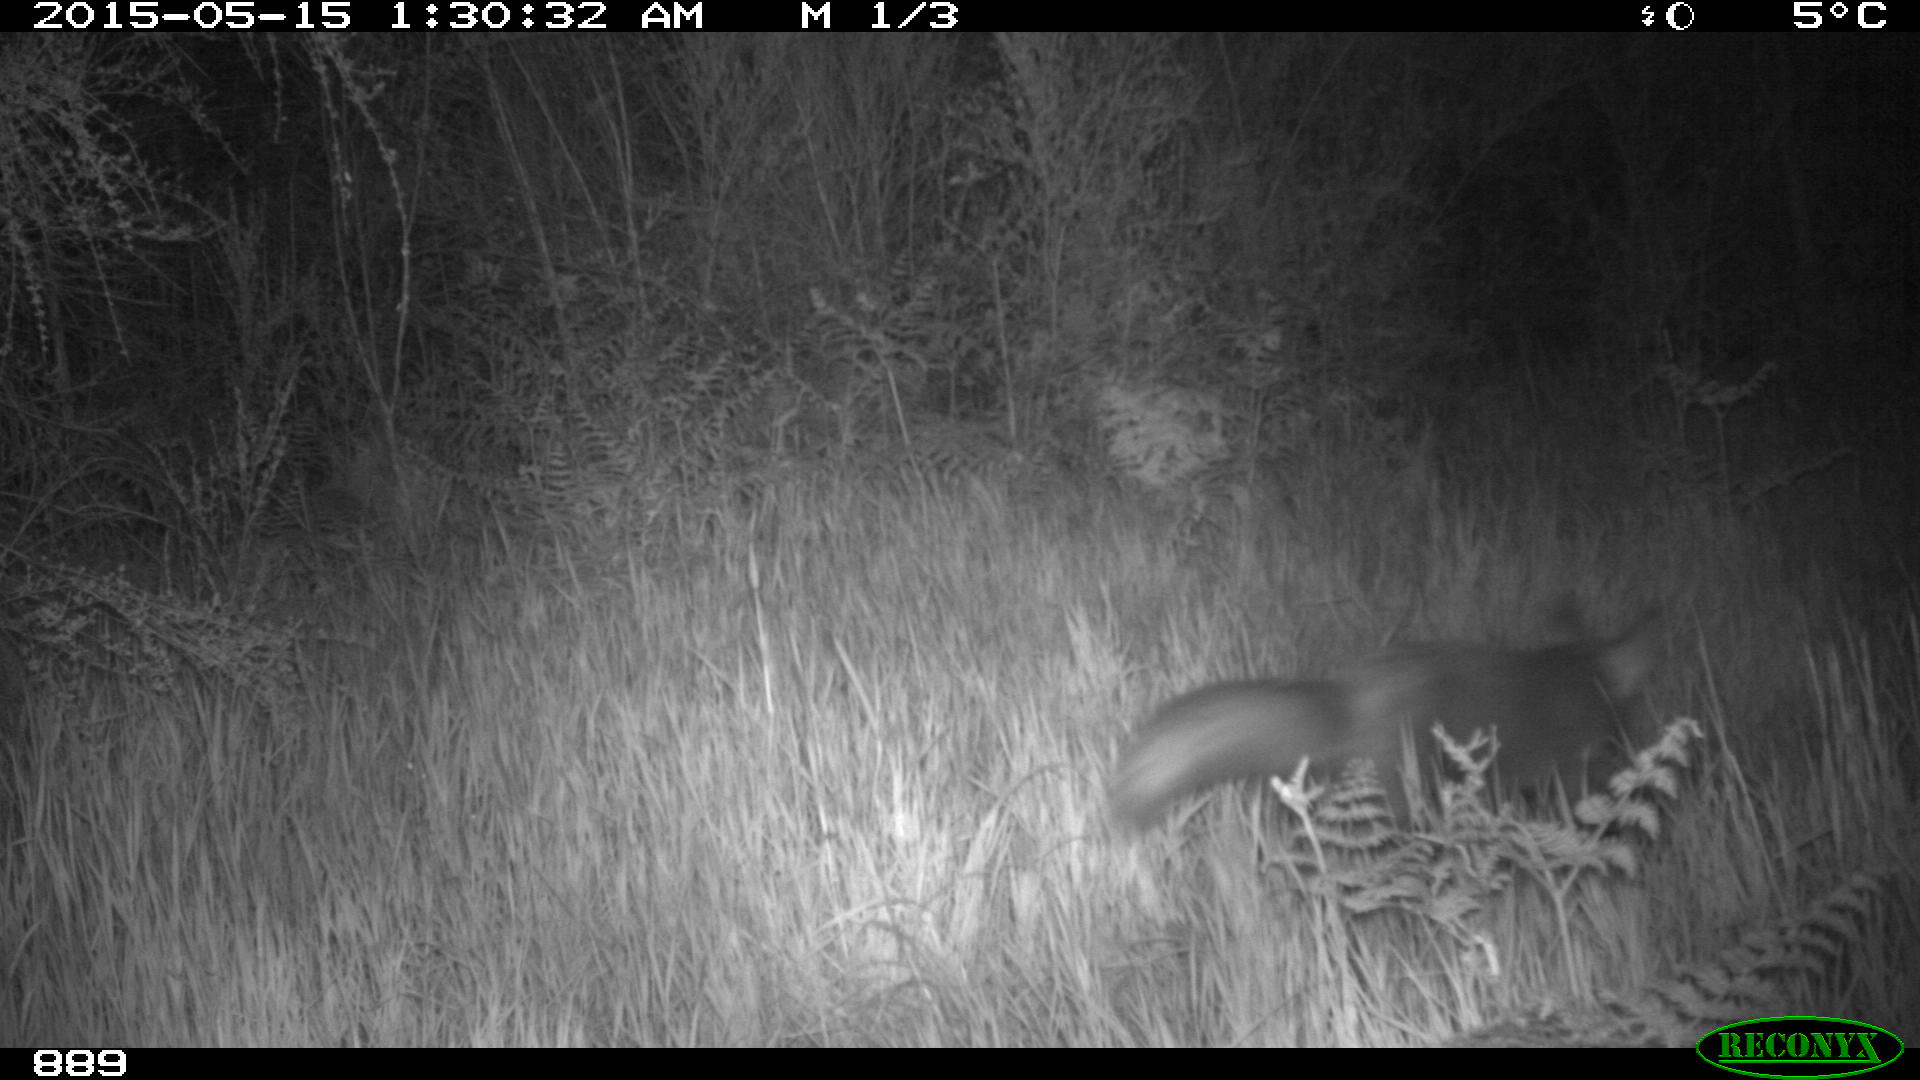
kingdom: Animalia
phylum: Chordata
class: Mammalia
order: Carnivora
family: Canidae
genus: Vulpes
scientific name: Vulpes vulpes
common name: Red fox
